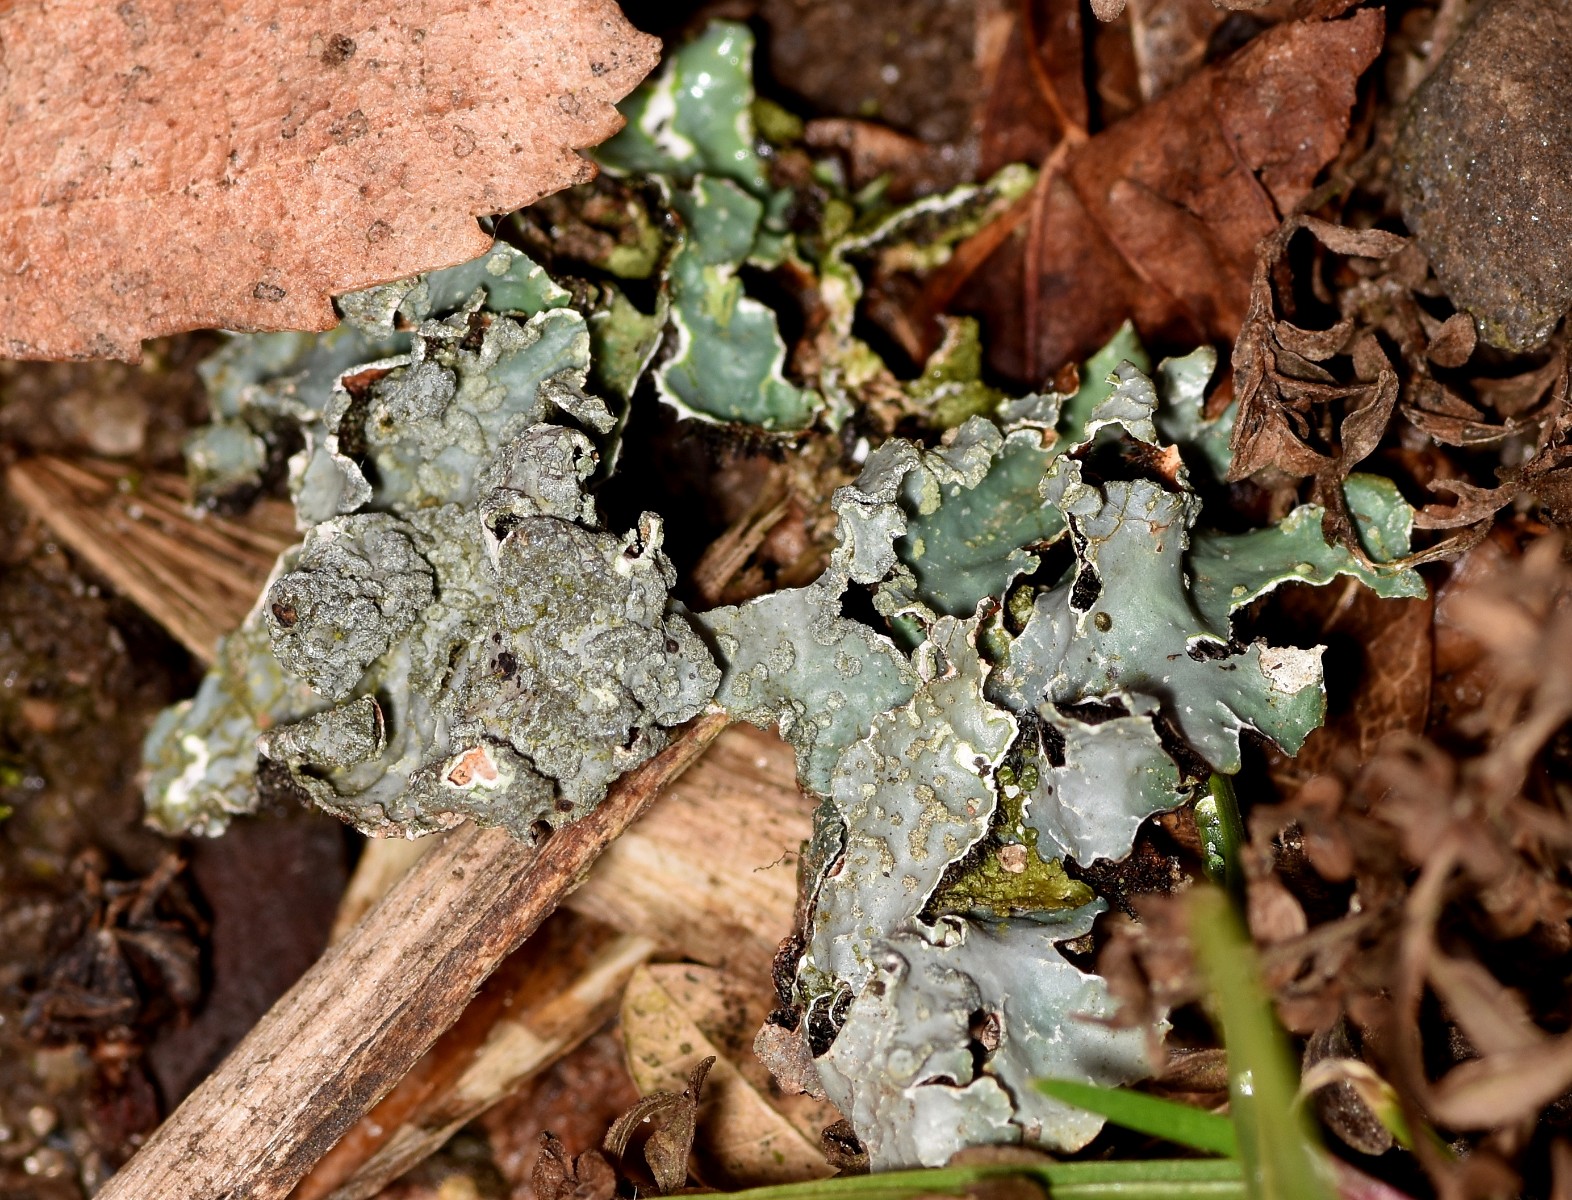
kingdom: Fungi
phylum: Ascomycota
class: Lecanoromycetes
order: Lecanorales
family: Parmeliaceae
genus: Parmelia
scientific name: Parmelia sulcata
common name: rynket skållav
